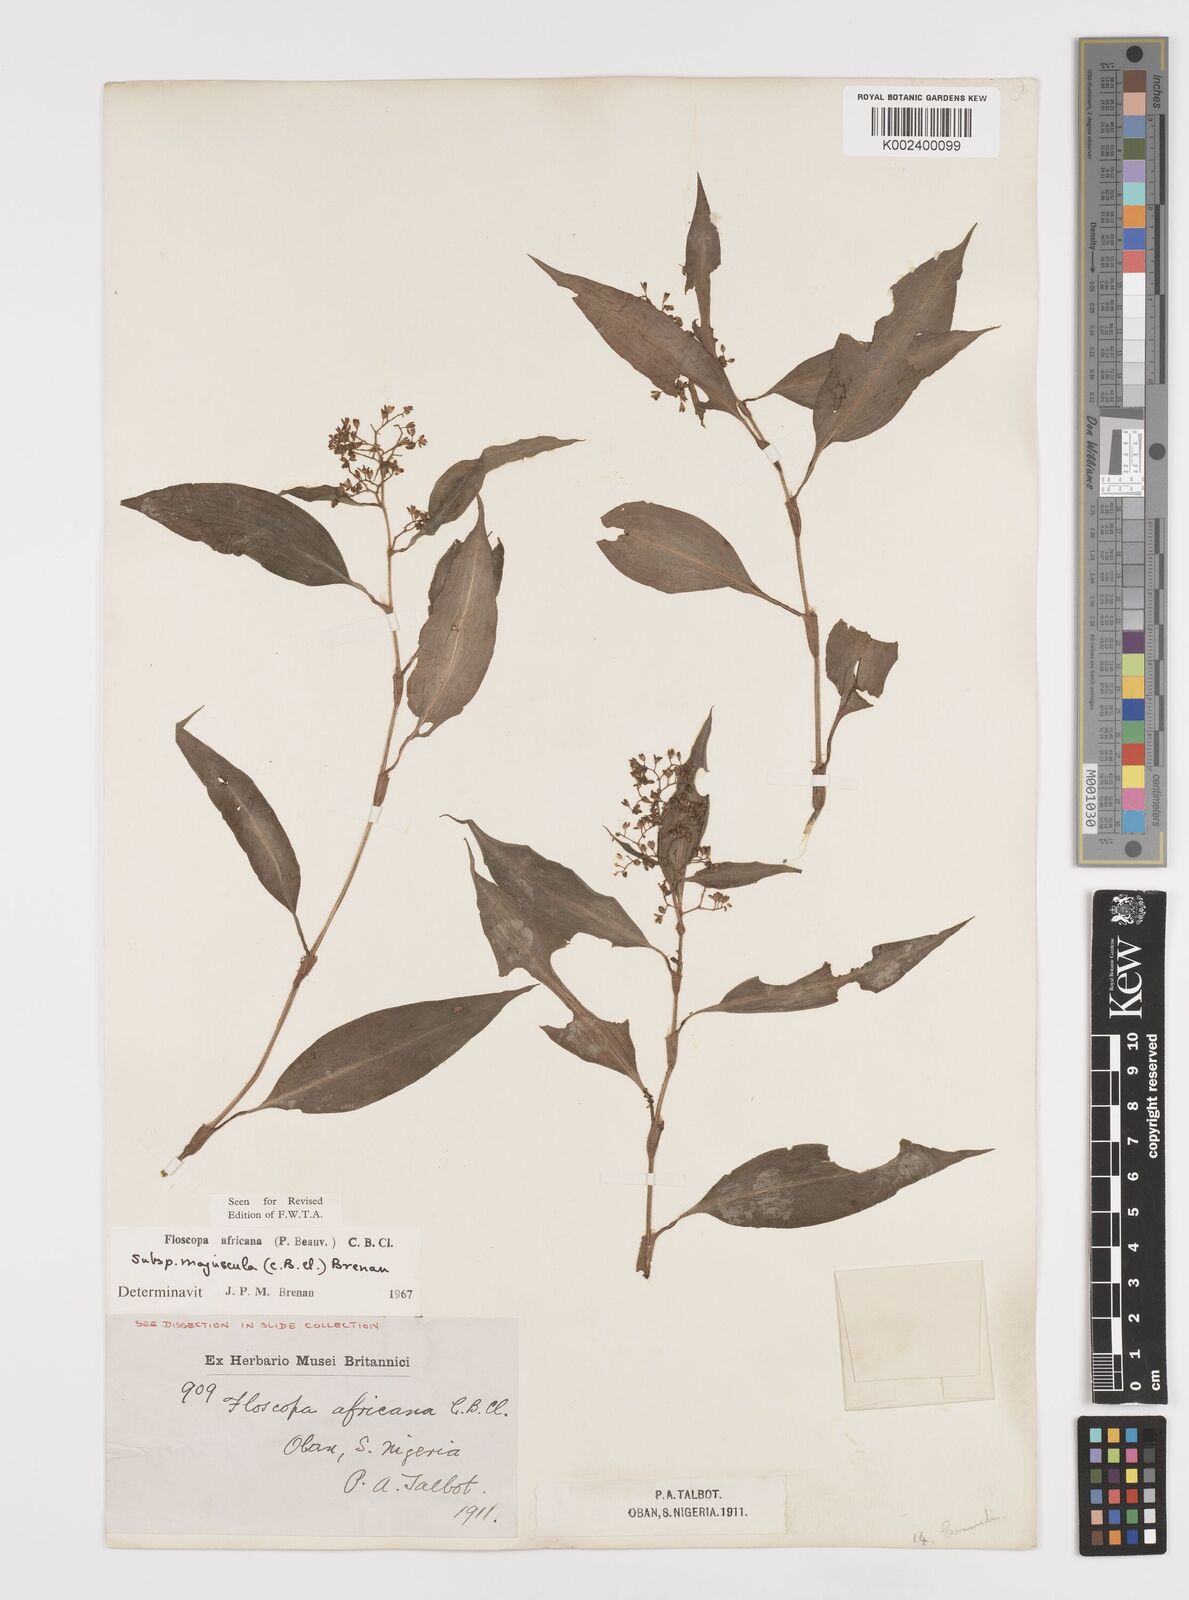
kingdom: Plantae
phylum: Tracheophyta
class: Liliopsida
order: Commelinales
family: Commelinaceae
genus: Floscopa
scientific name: Floscopa africana
